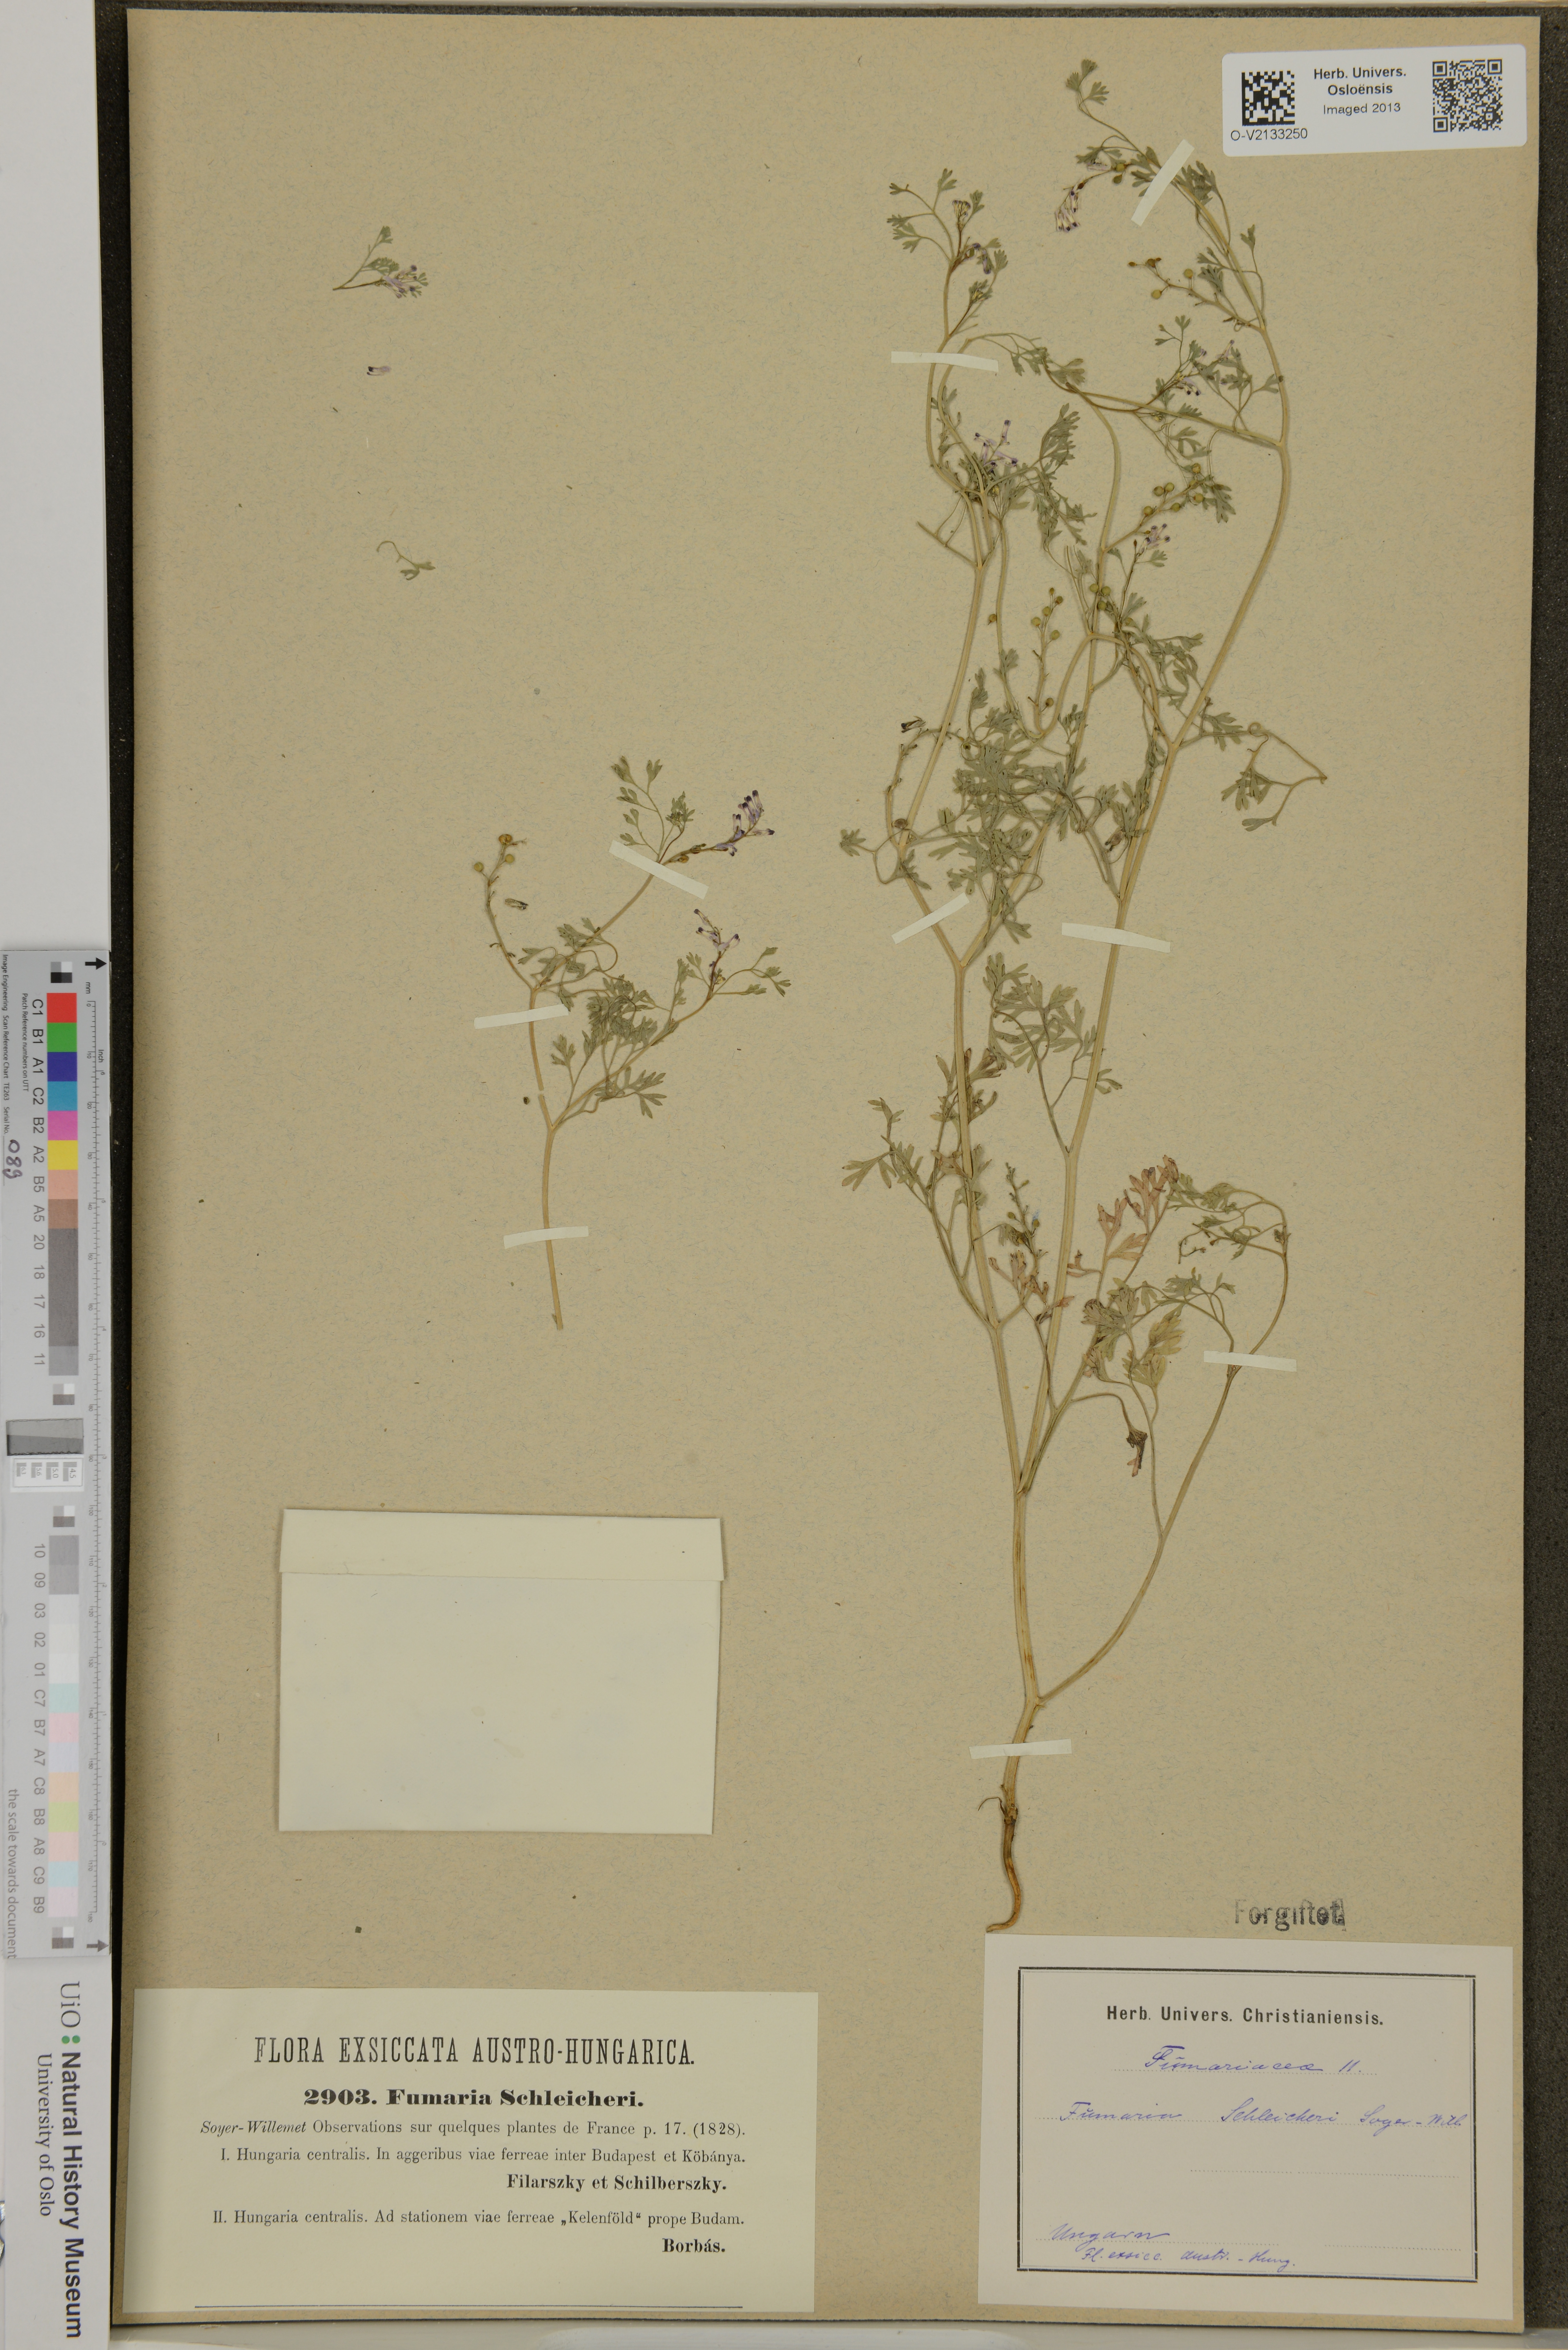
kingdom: Plantae
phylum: Tracheophyta
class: Magnoliopsida
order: Ranunculales
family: Papaveraceae
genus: Fumaria
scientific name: Fumaria schleicheri
